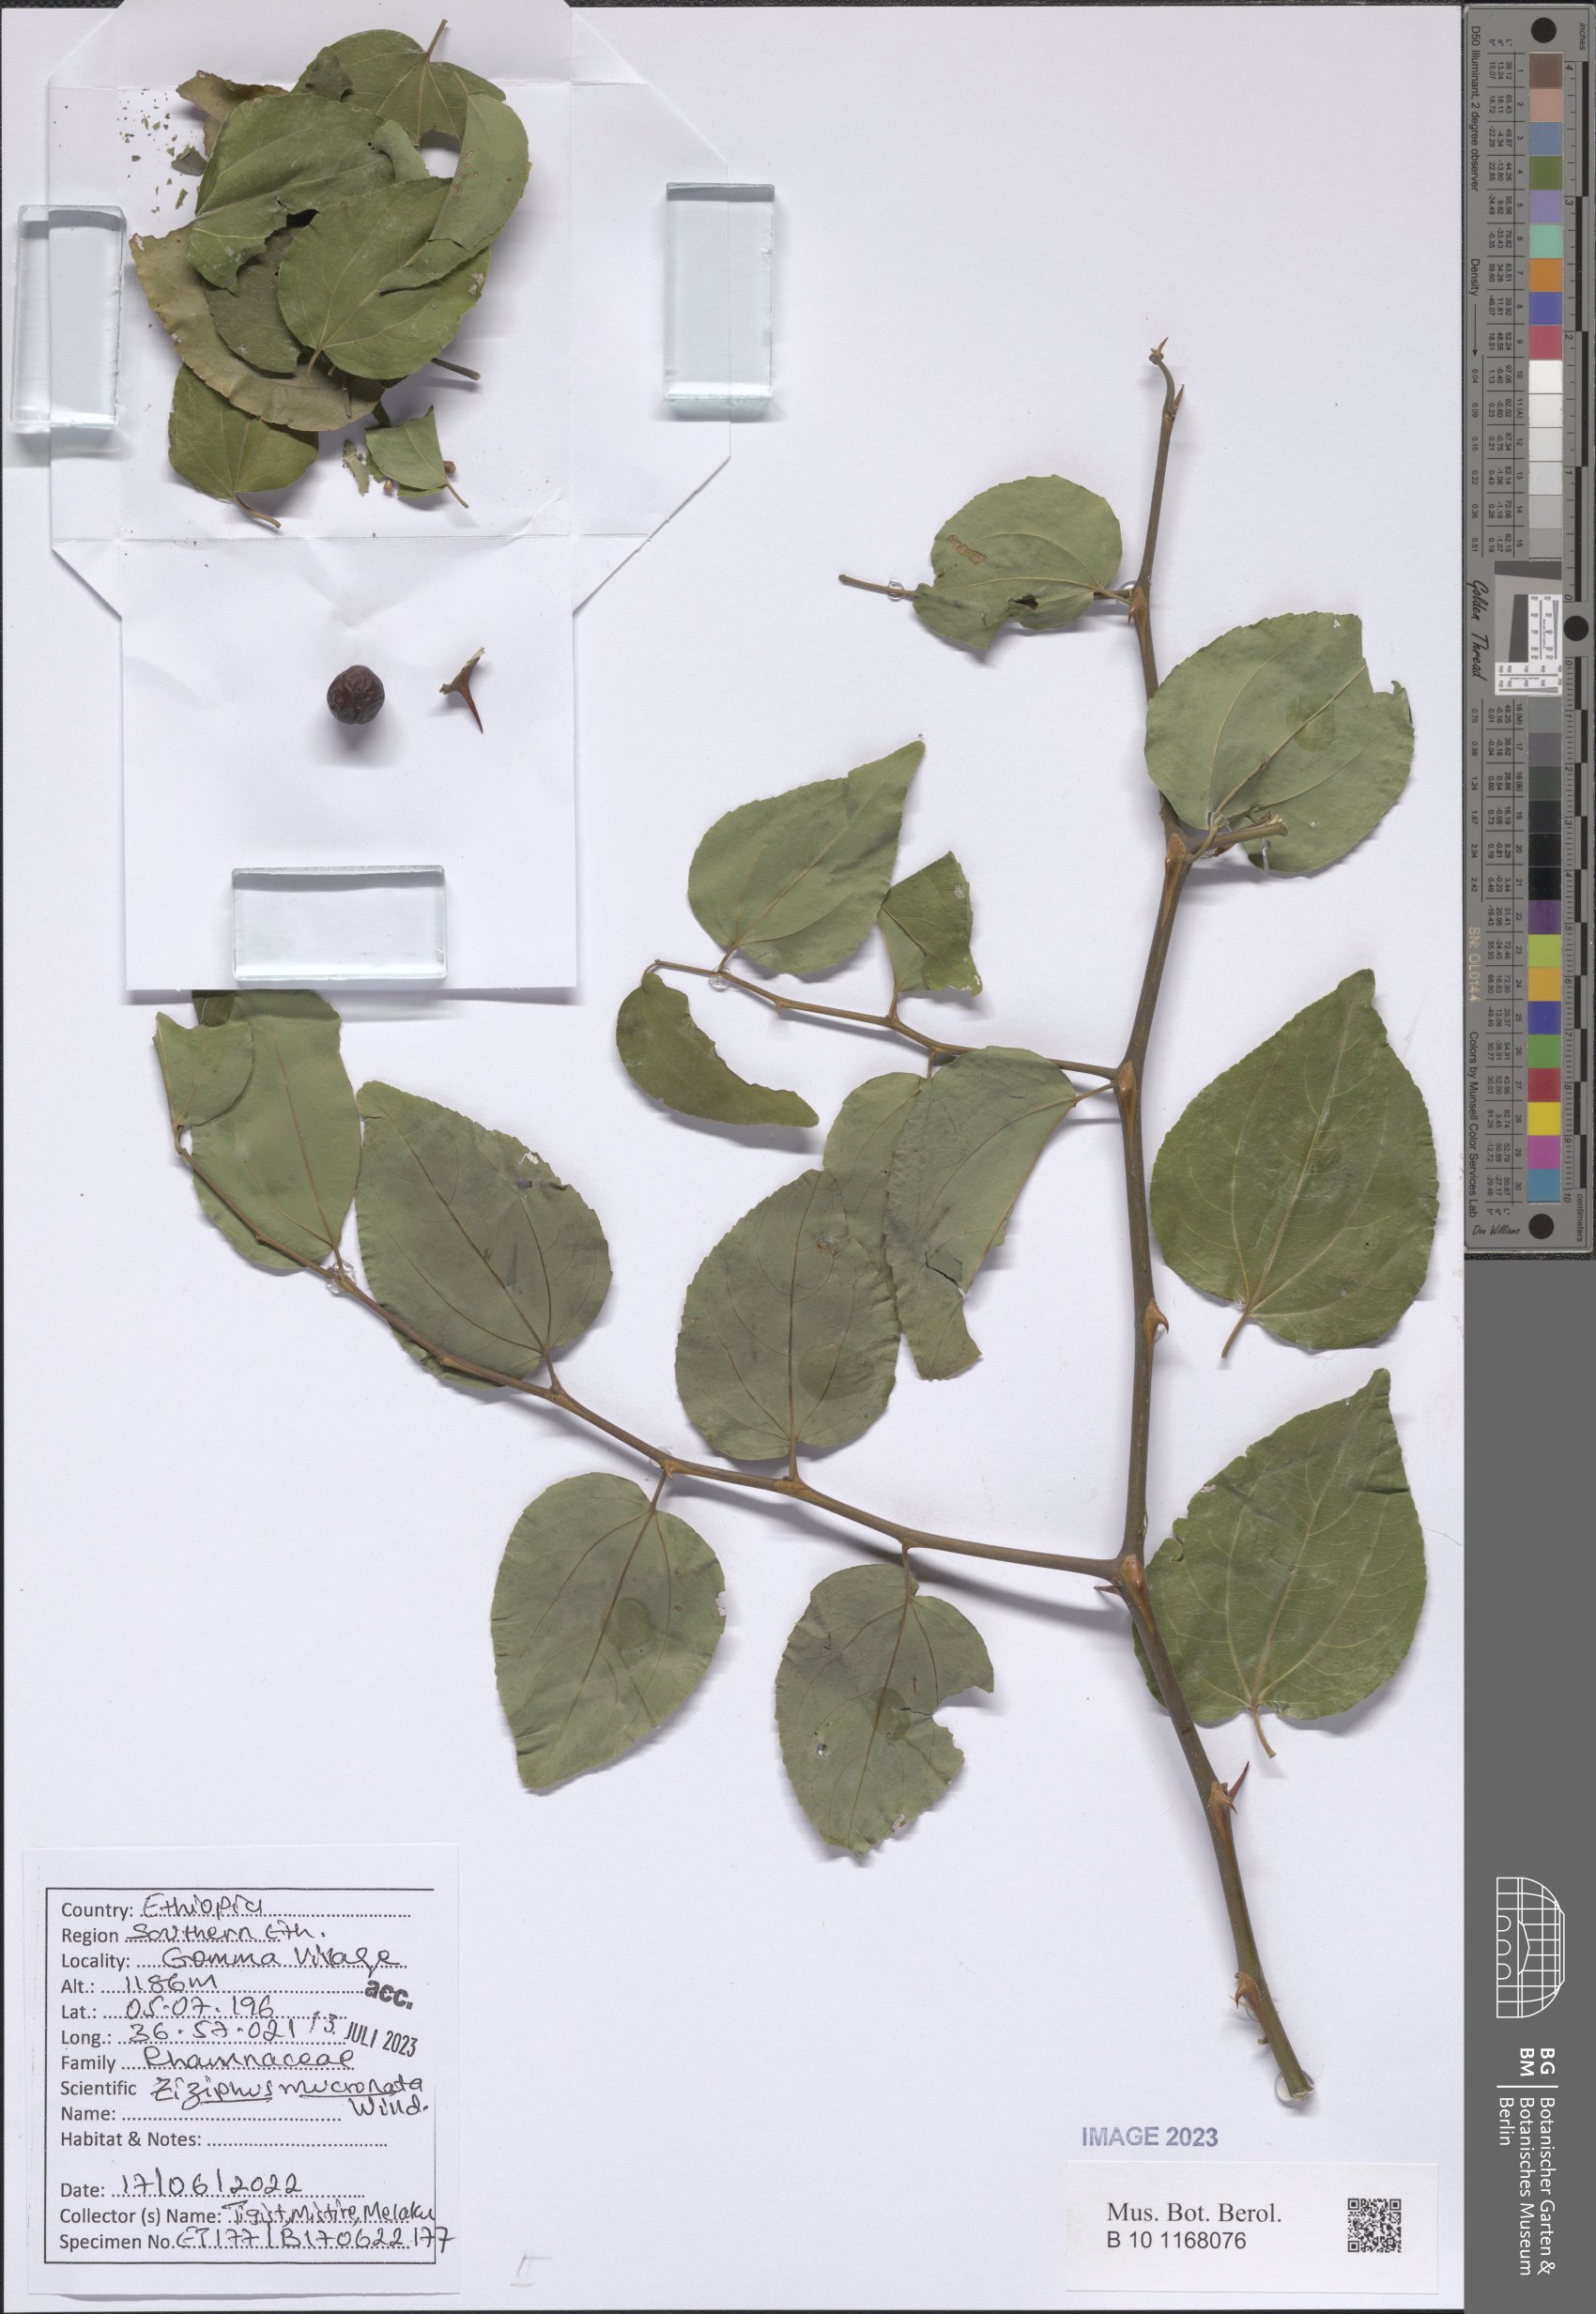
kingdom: Plantae
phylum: Tracheophyta
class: Magnoliopsida
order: Rosales
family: Rhamnaceae
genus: Ziziphus
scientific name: Ziziphus mucronata
